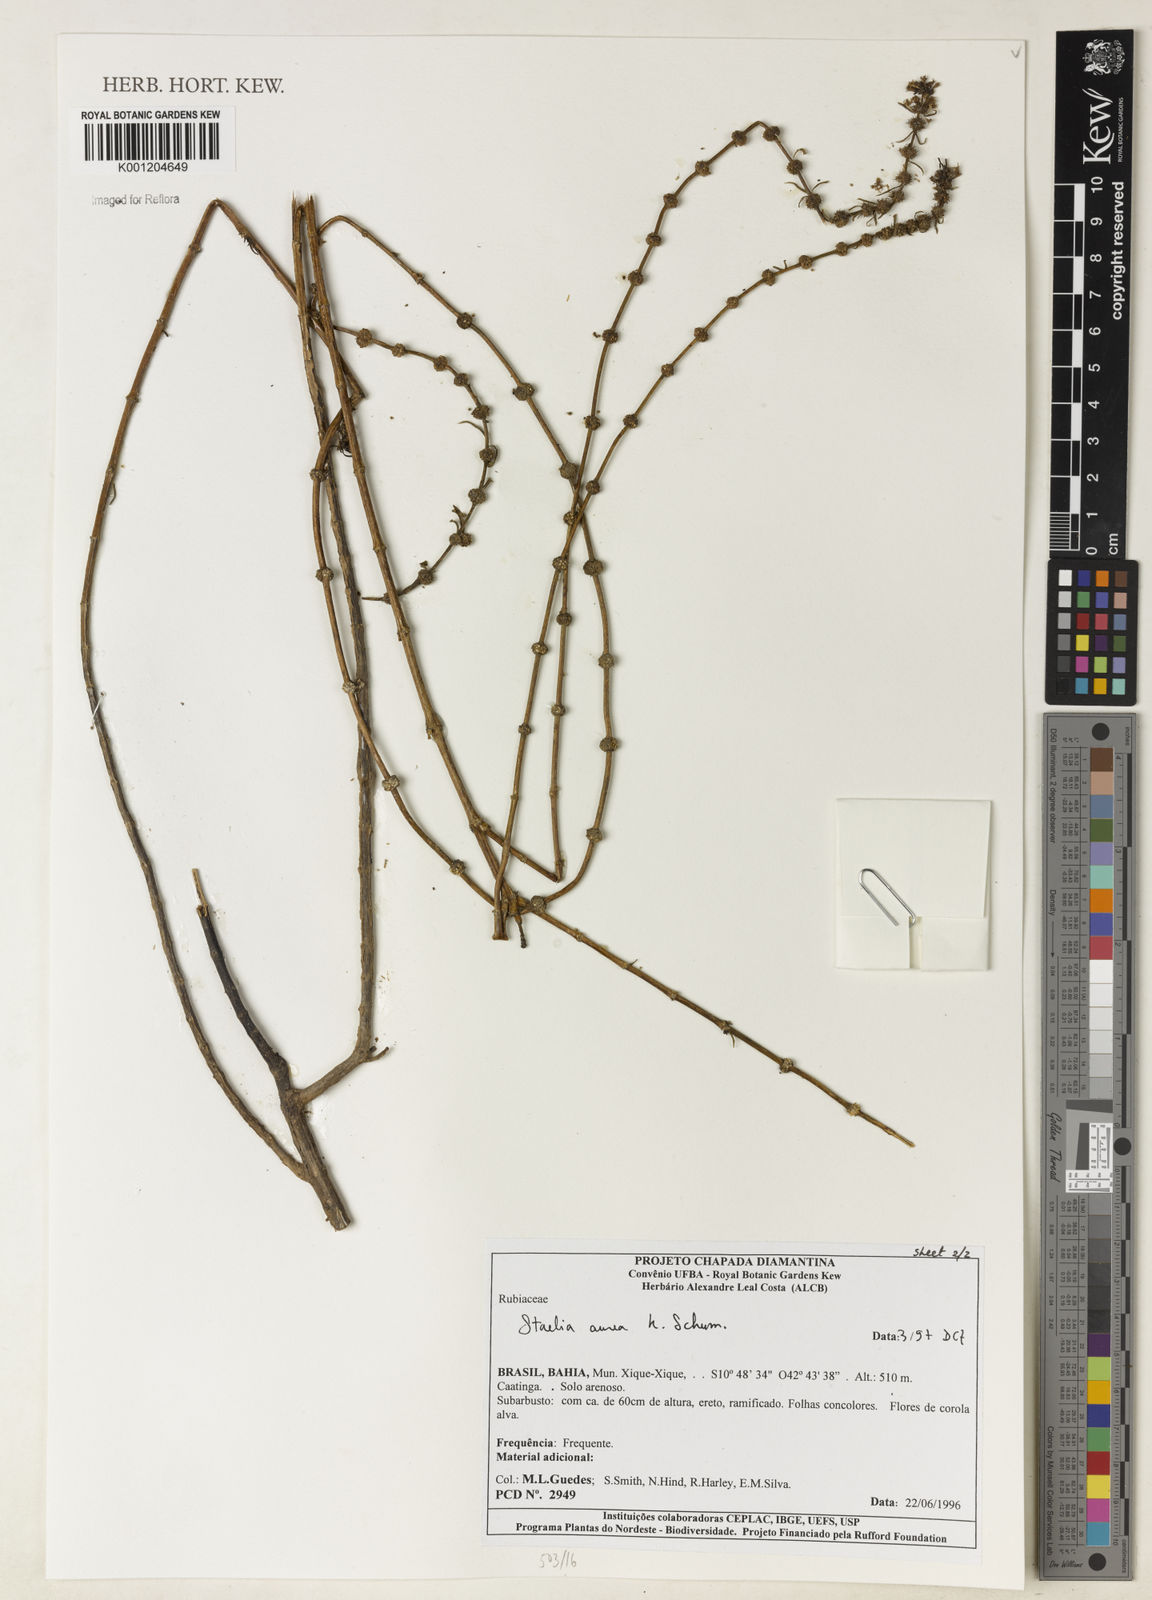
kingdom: Plantae
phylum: Tracheophyta
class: Magnoliopsida
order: Gentianales
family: Rubiaceae
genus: Staelia
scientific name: Staelia aurea
